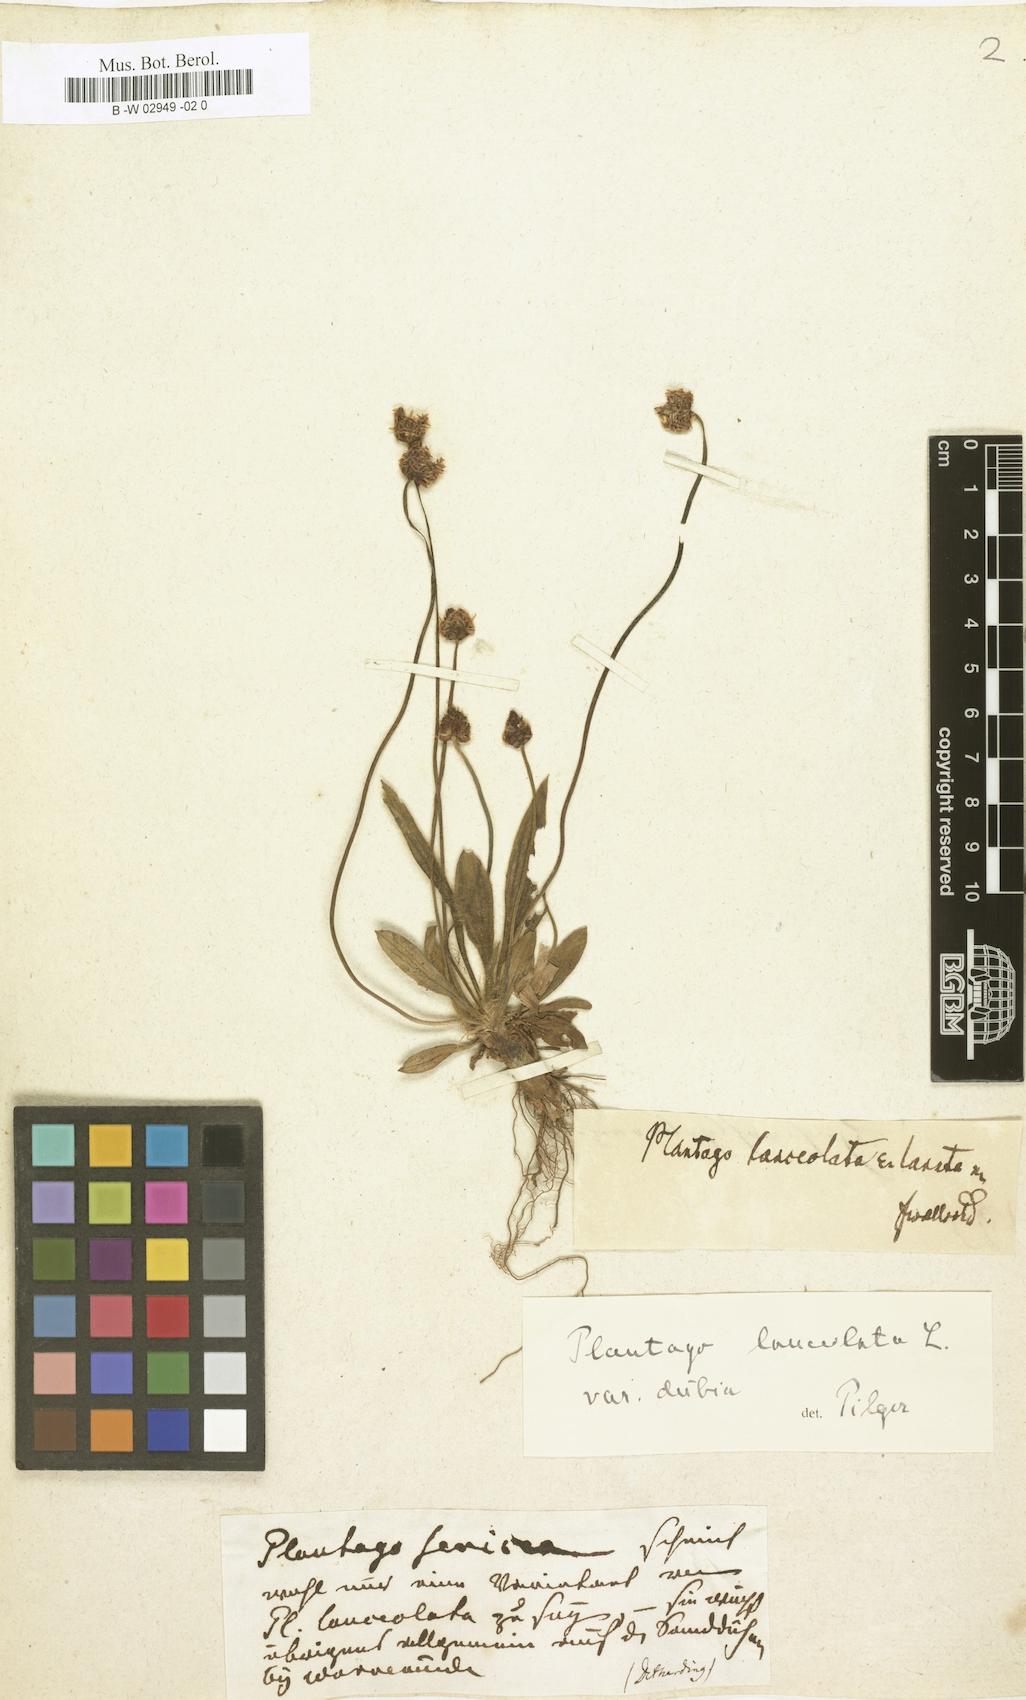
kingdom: Plantae
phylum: Tracheophyta
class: Magnoliopsida
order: Lamiales
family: Plantaginaceae
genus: Plantago
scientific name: Plantago sericea
